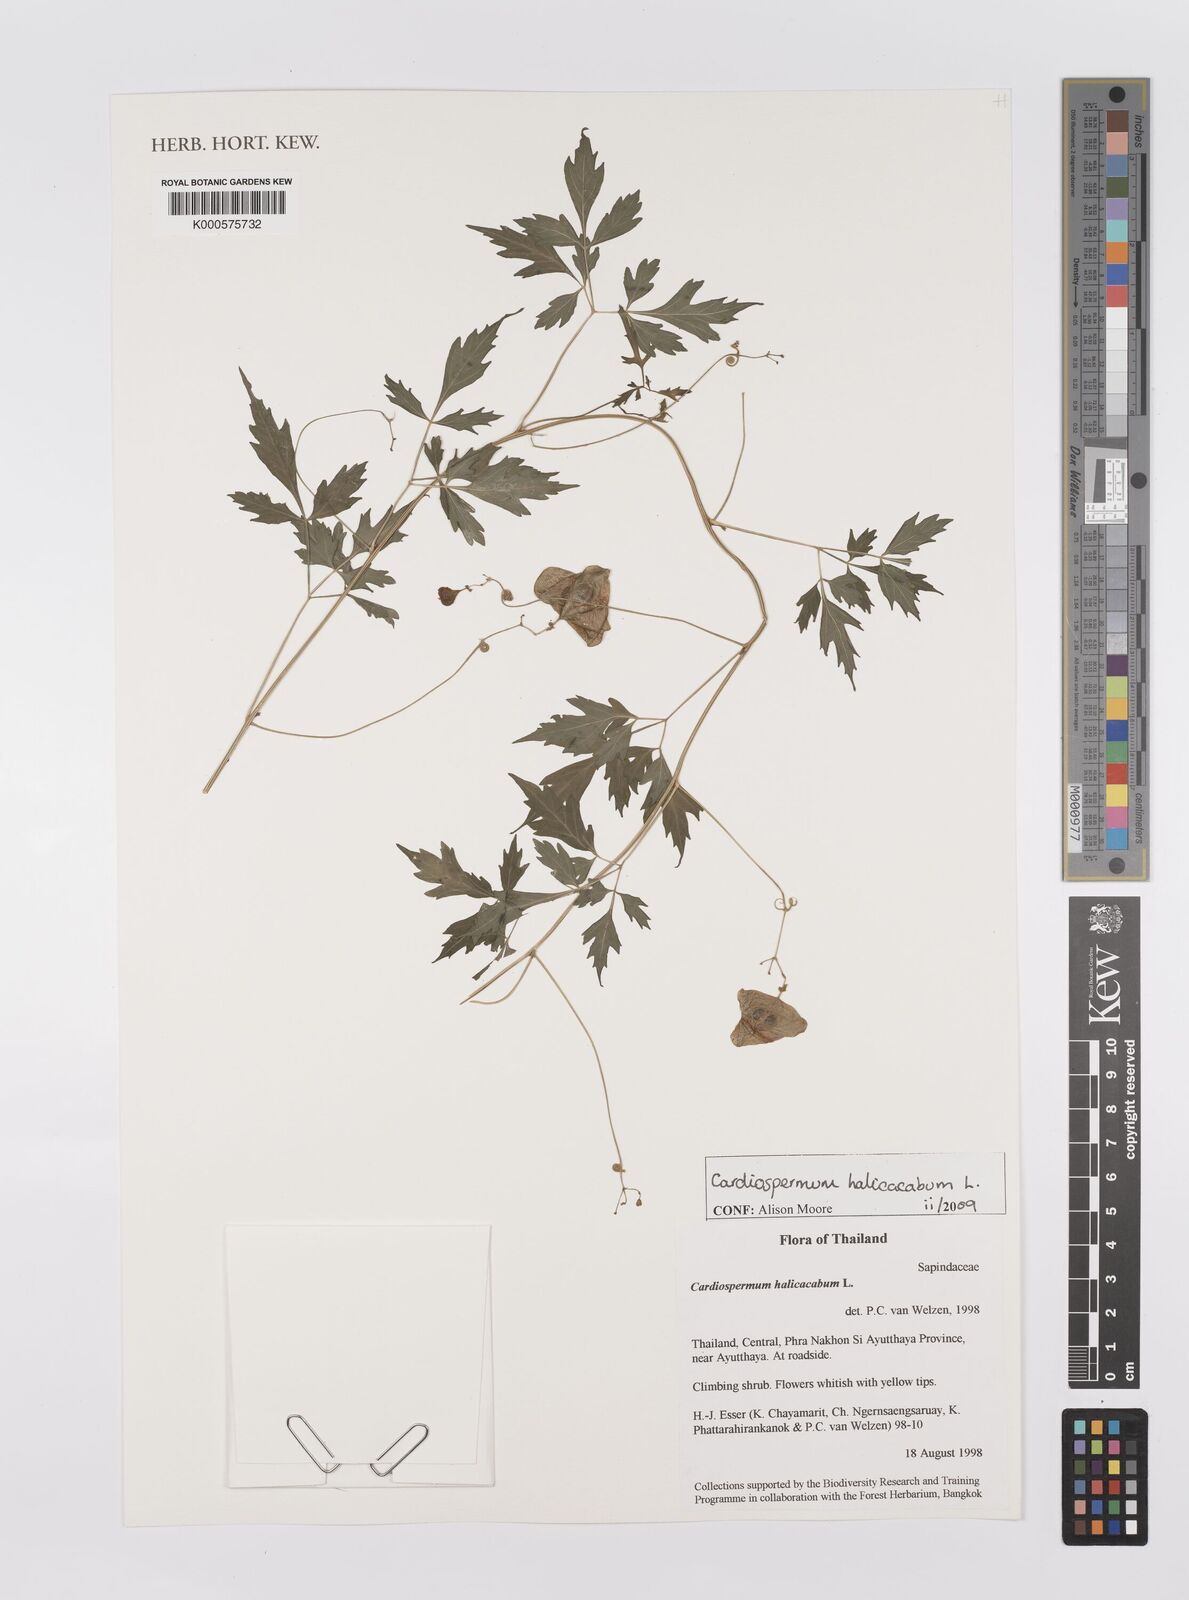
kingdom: Plantae
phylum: Tracheophyta
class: Magnoliopsida
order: Sapindales
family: Sapindaceae
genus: Cardiospermum
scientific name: Cardiospermum halicacabum
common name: Balloon vine
